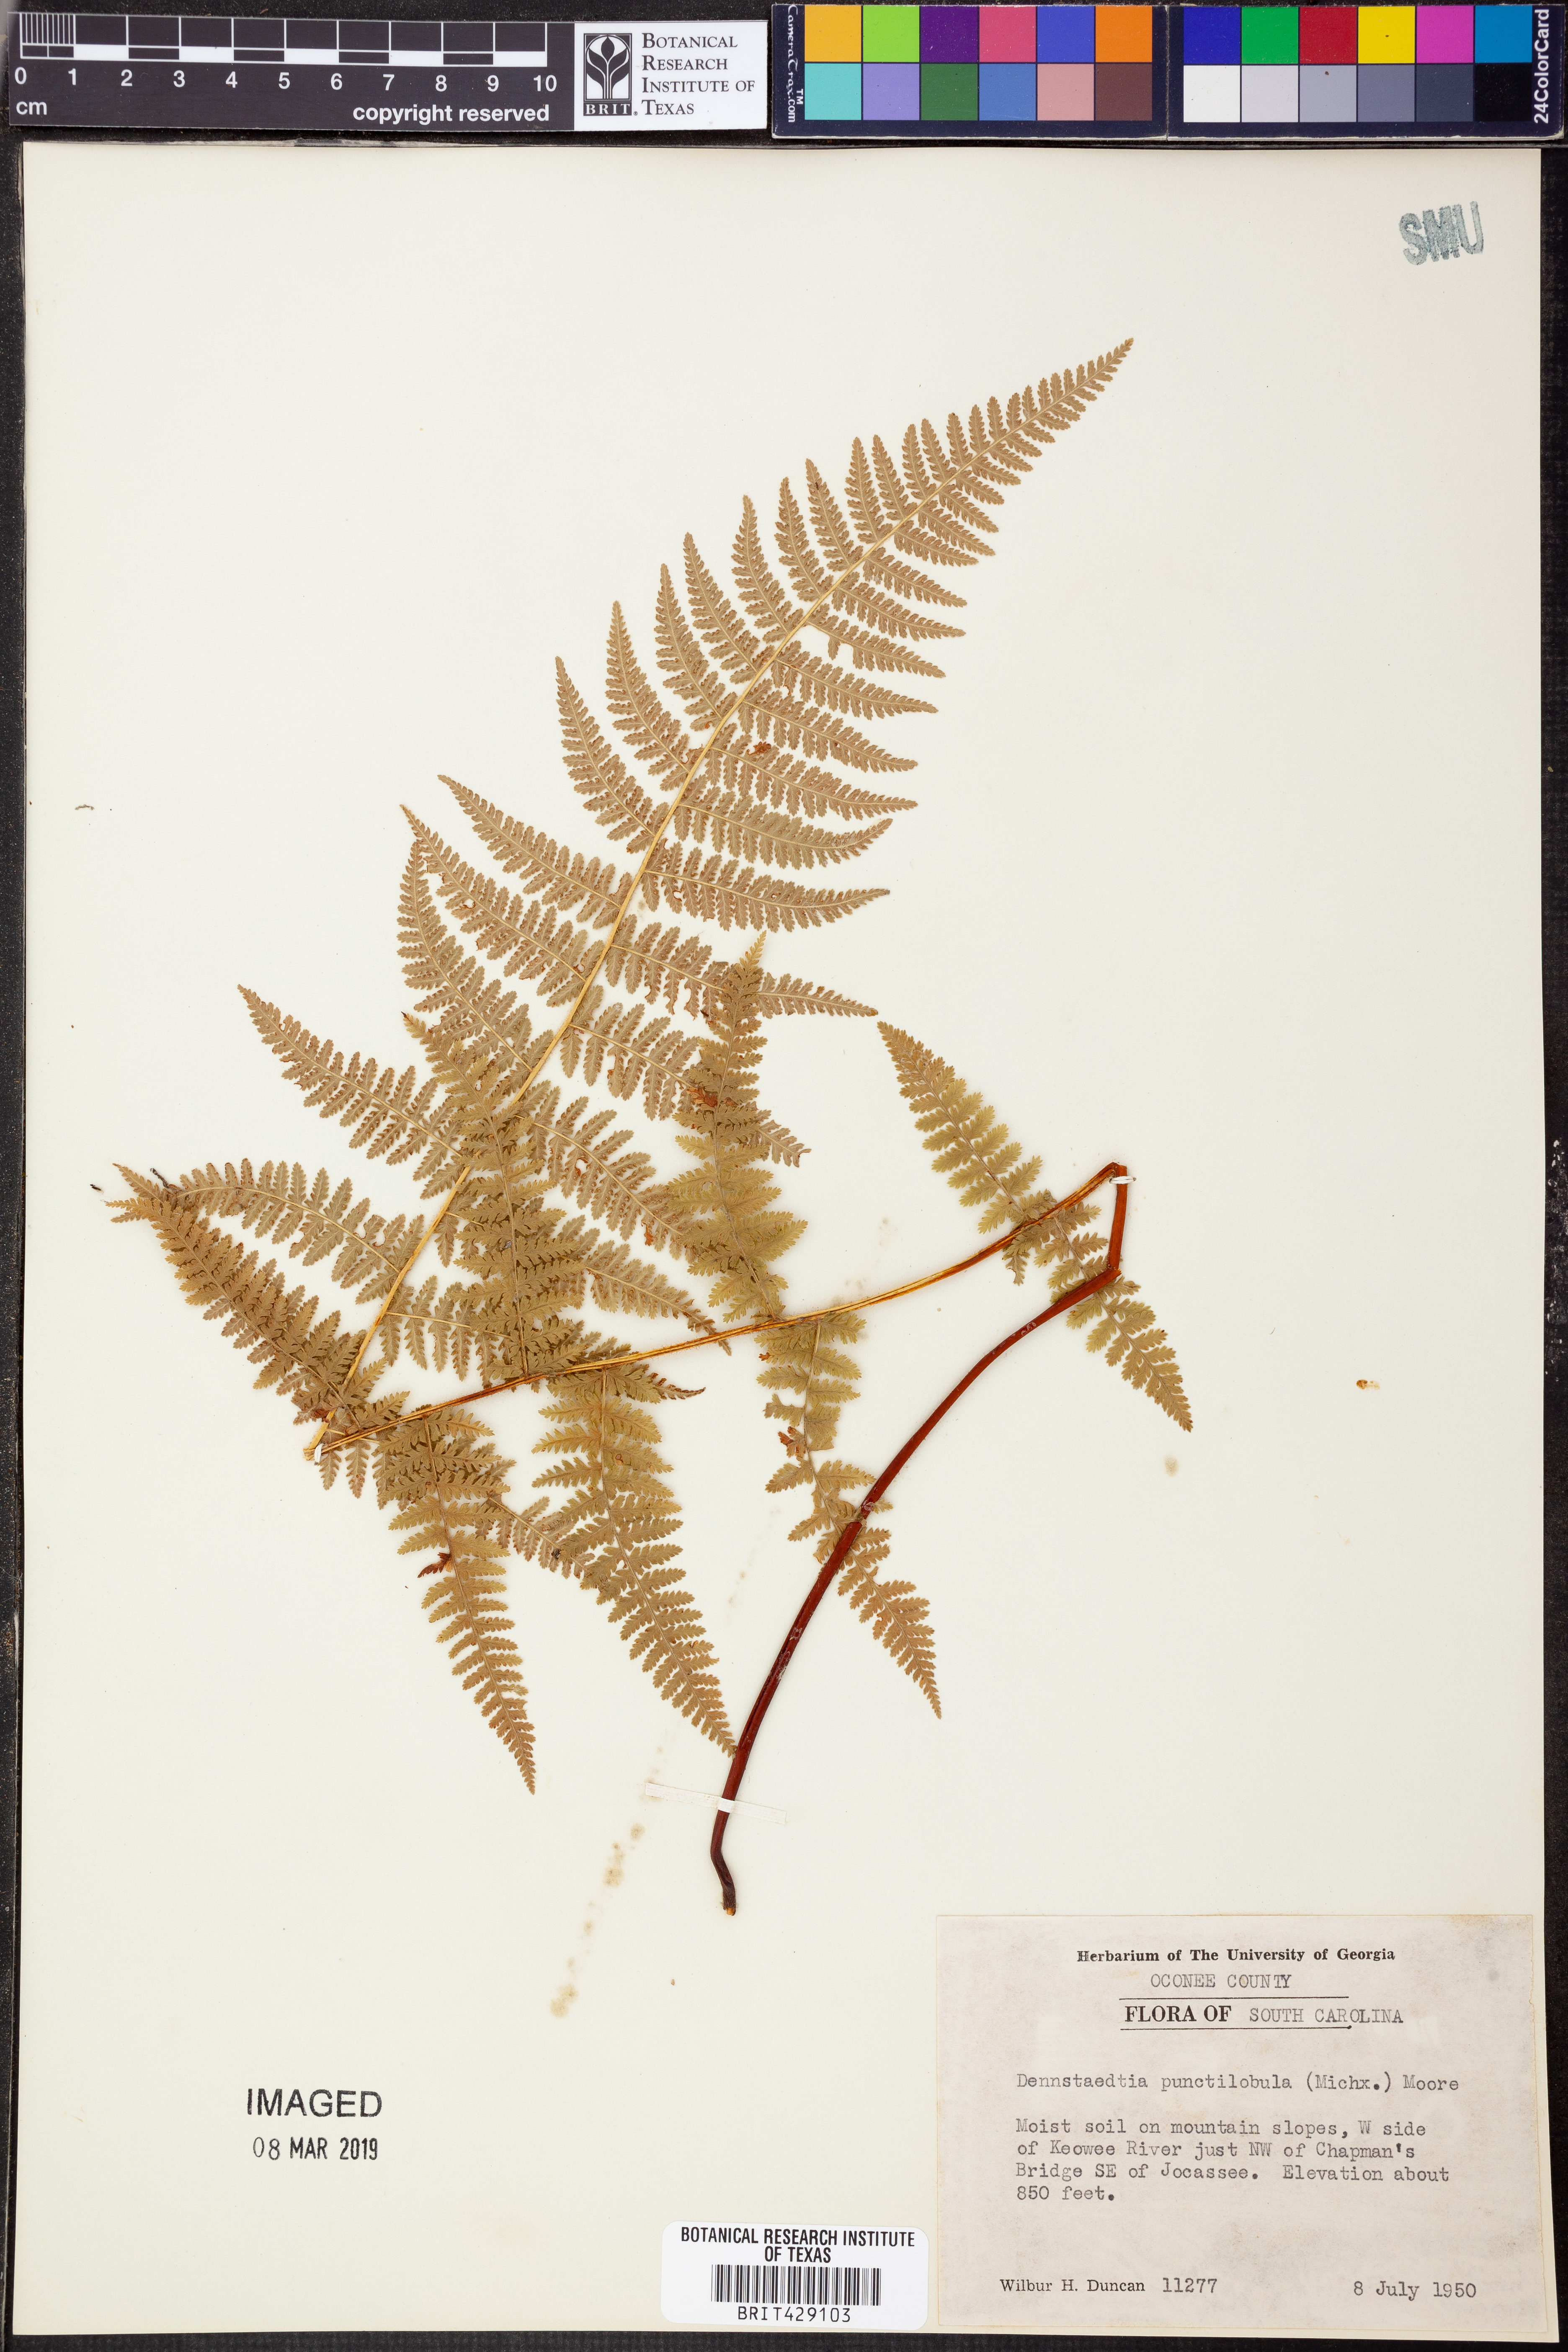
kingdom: Plantae
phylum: Tracheophyta
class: Polypodiopsida
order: Polypodiales
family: Dennstaedtiaceae
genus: Sitobolium
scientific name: Sitobolium punctilobum
